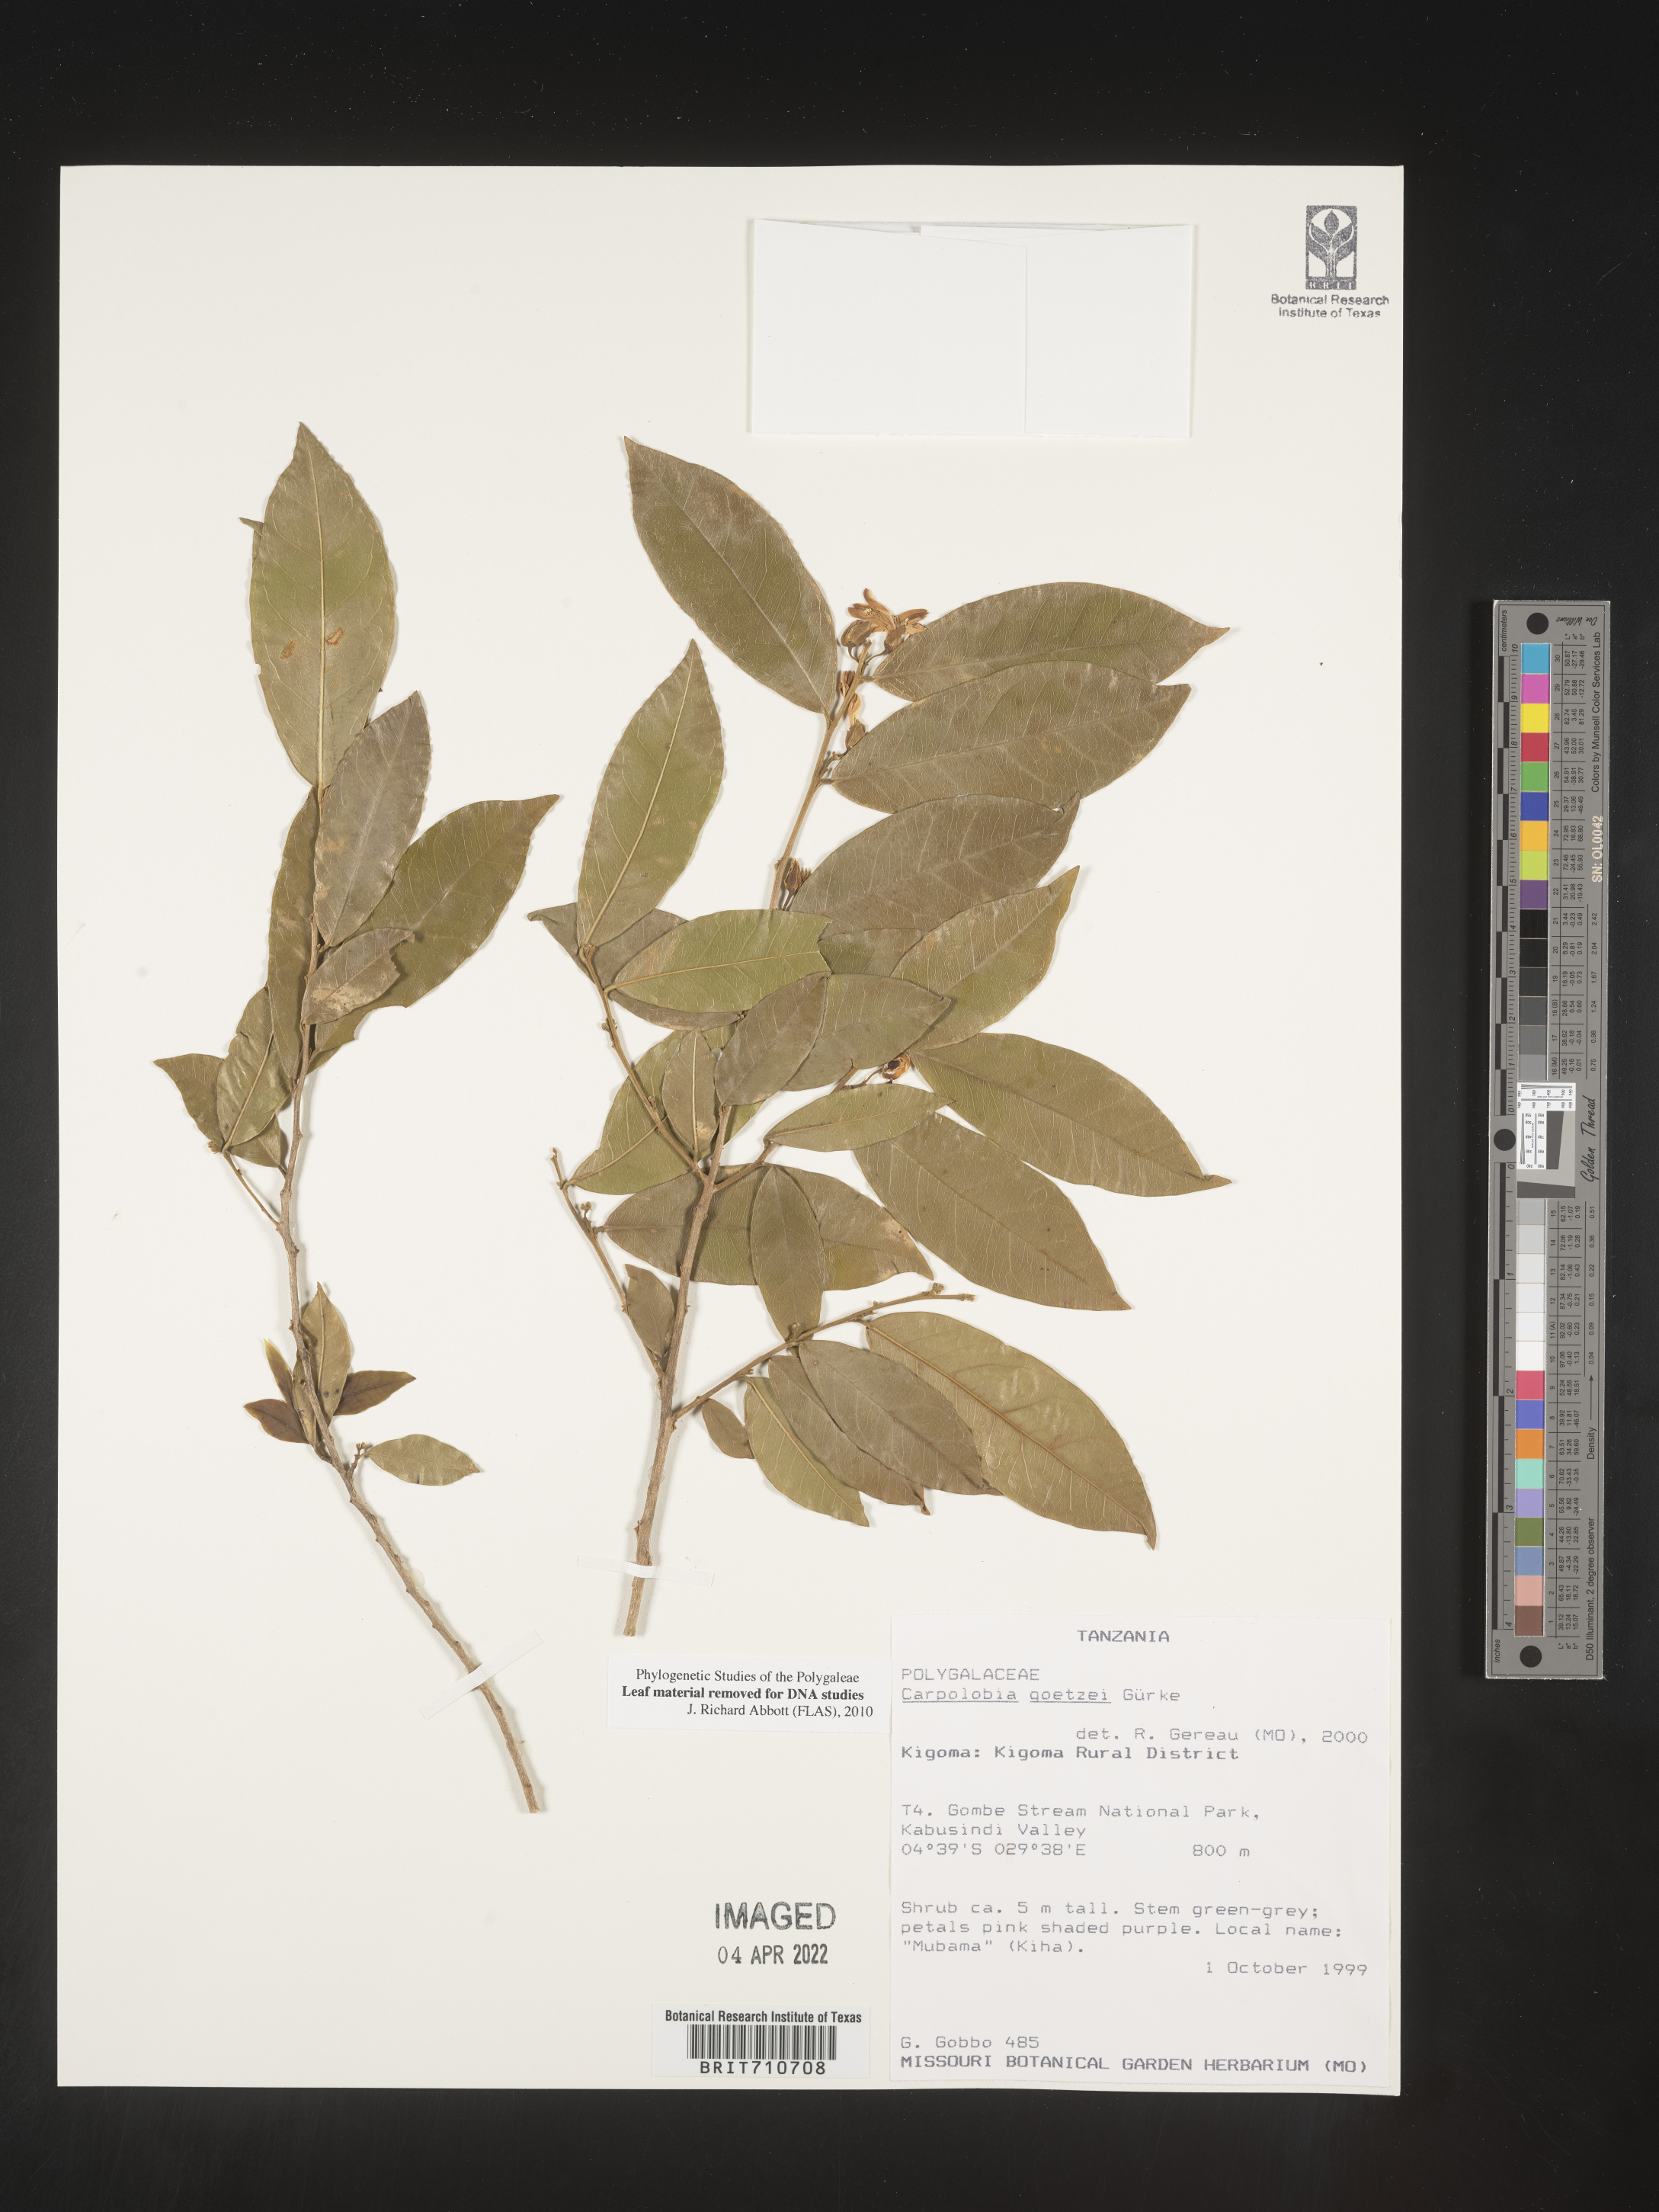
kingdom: Plantae
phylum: Tracheophyta
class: Magnoliopsida
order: Fabales
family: Polygalaceae
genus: Carpolobia
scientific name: Carpolobia
